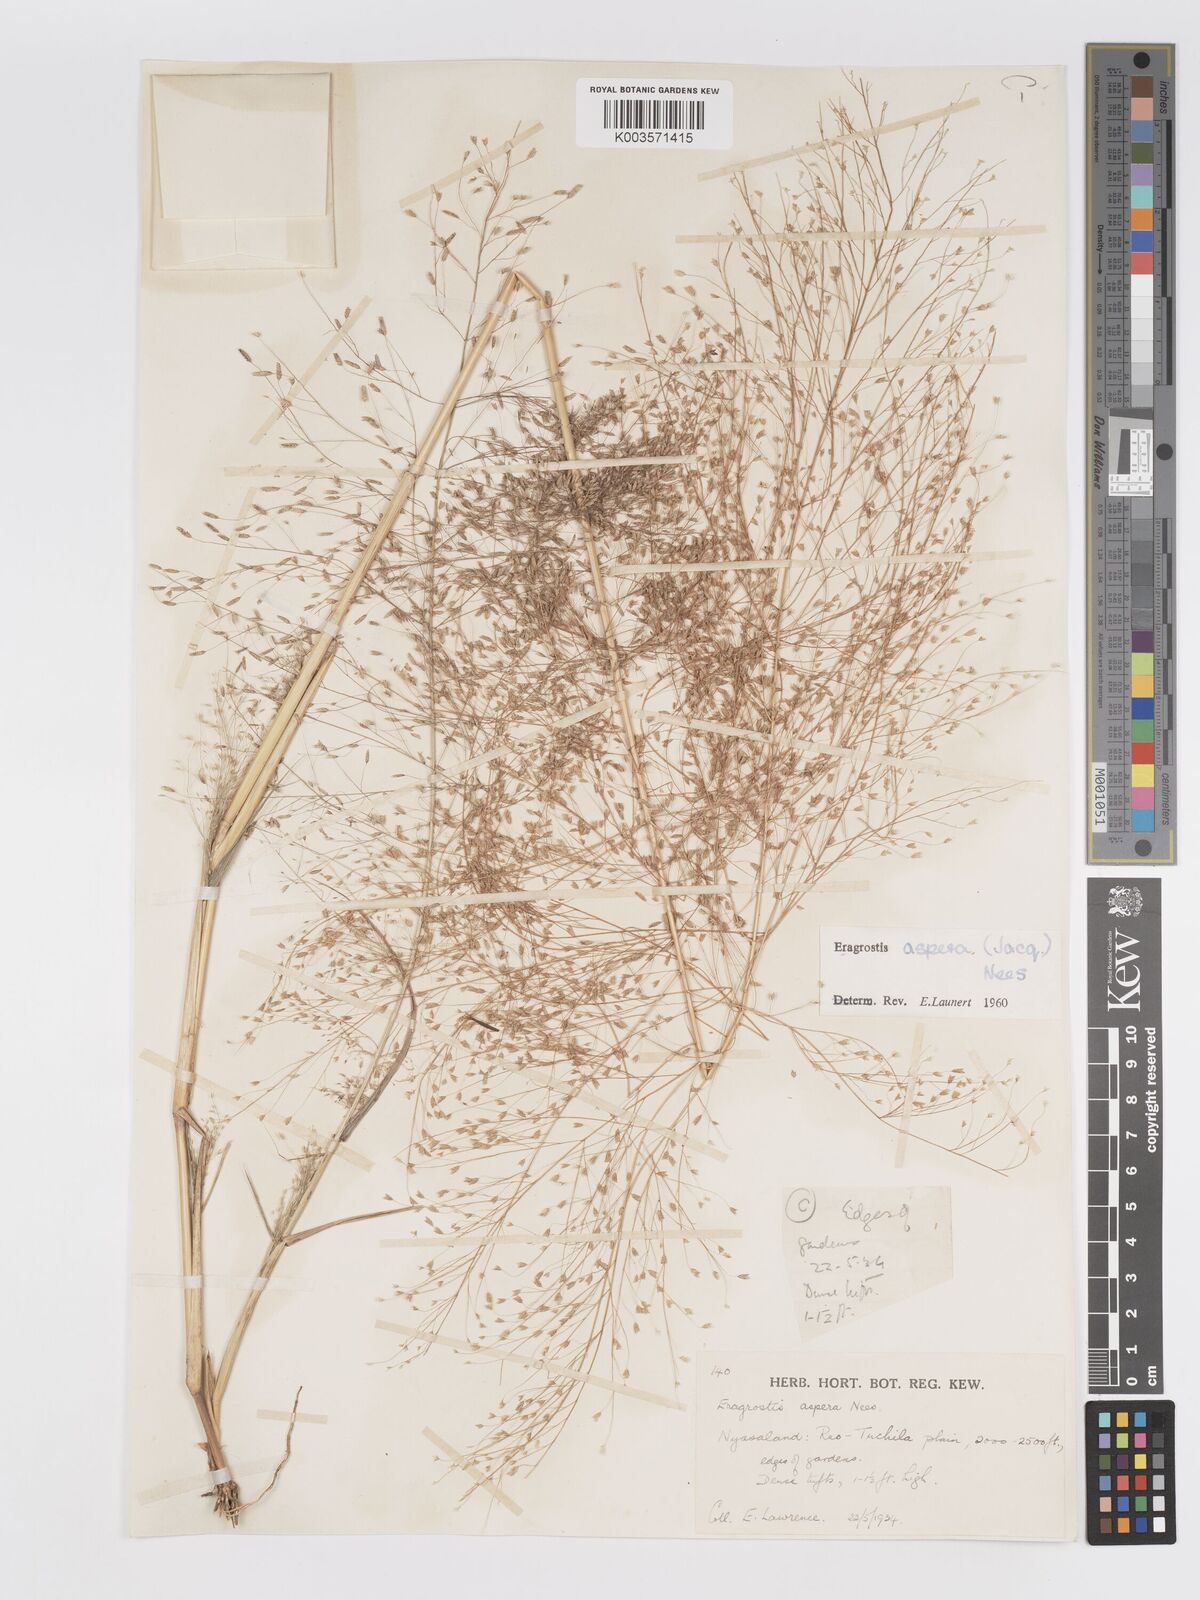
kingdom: Plantae
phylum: Tracheophyta
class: Liliopsida
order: Poales
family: Poaceae
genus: Eragrostis
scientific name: Eragrostis aspera
